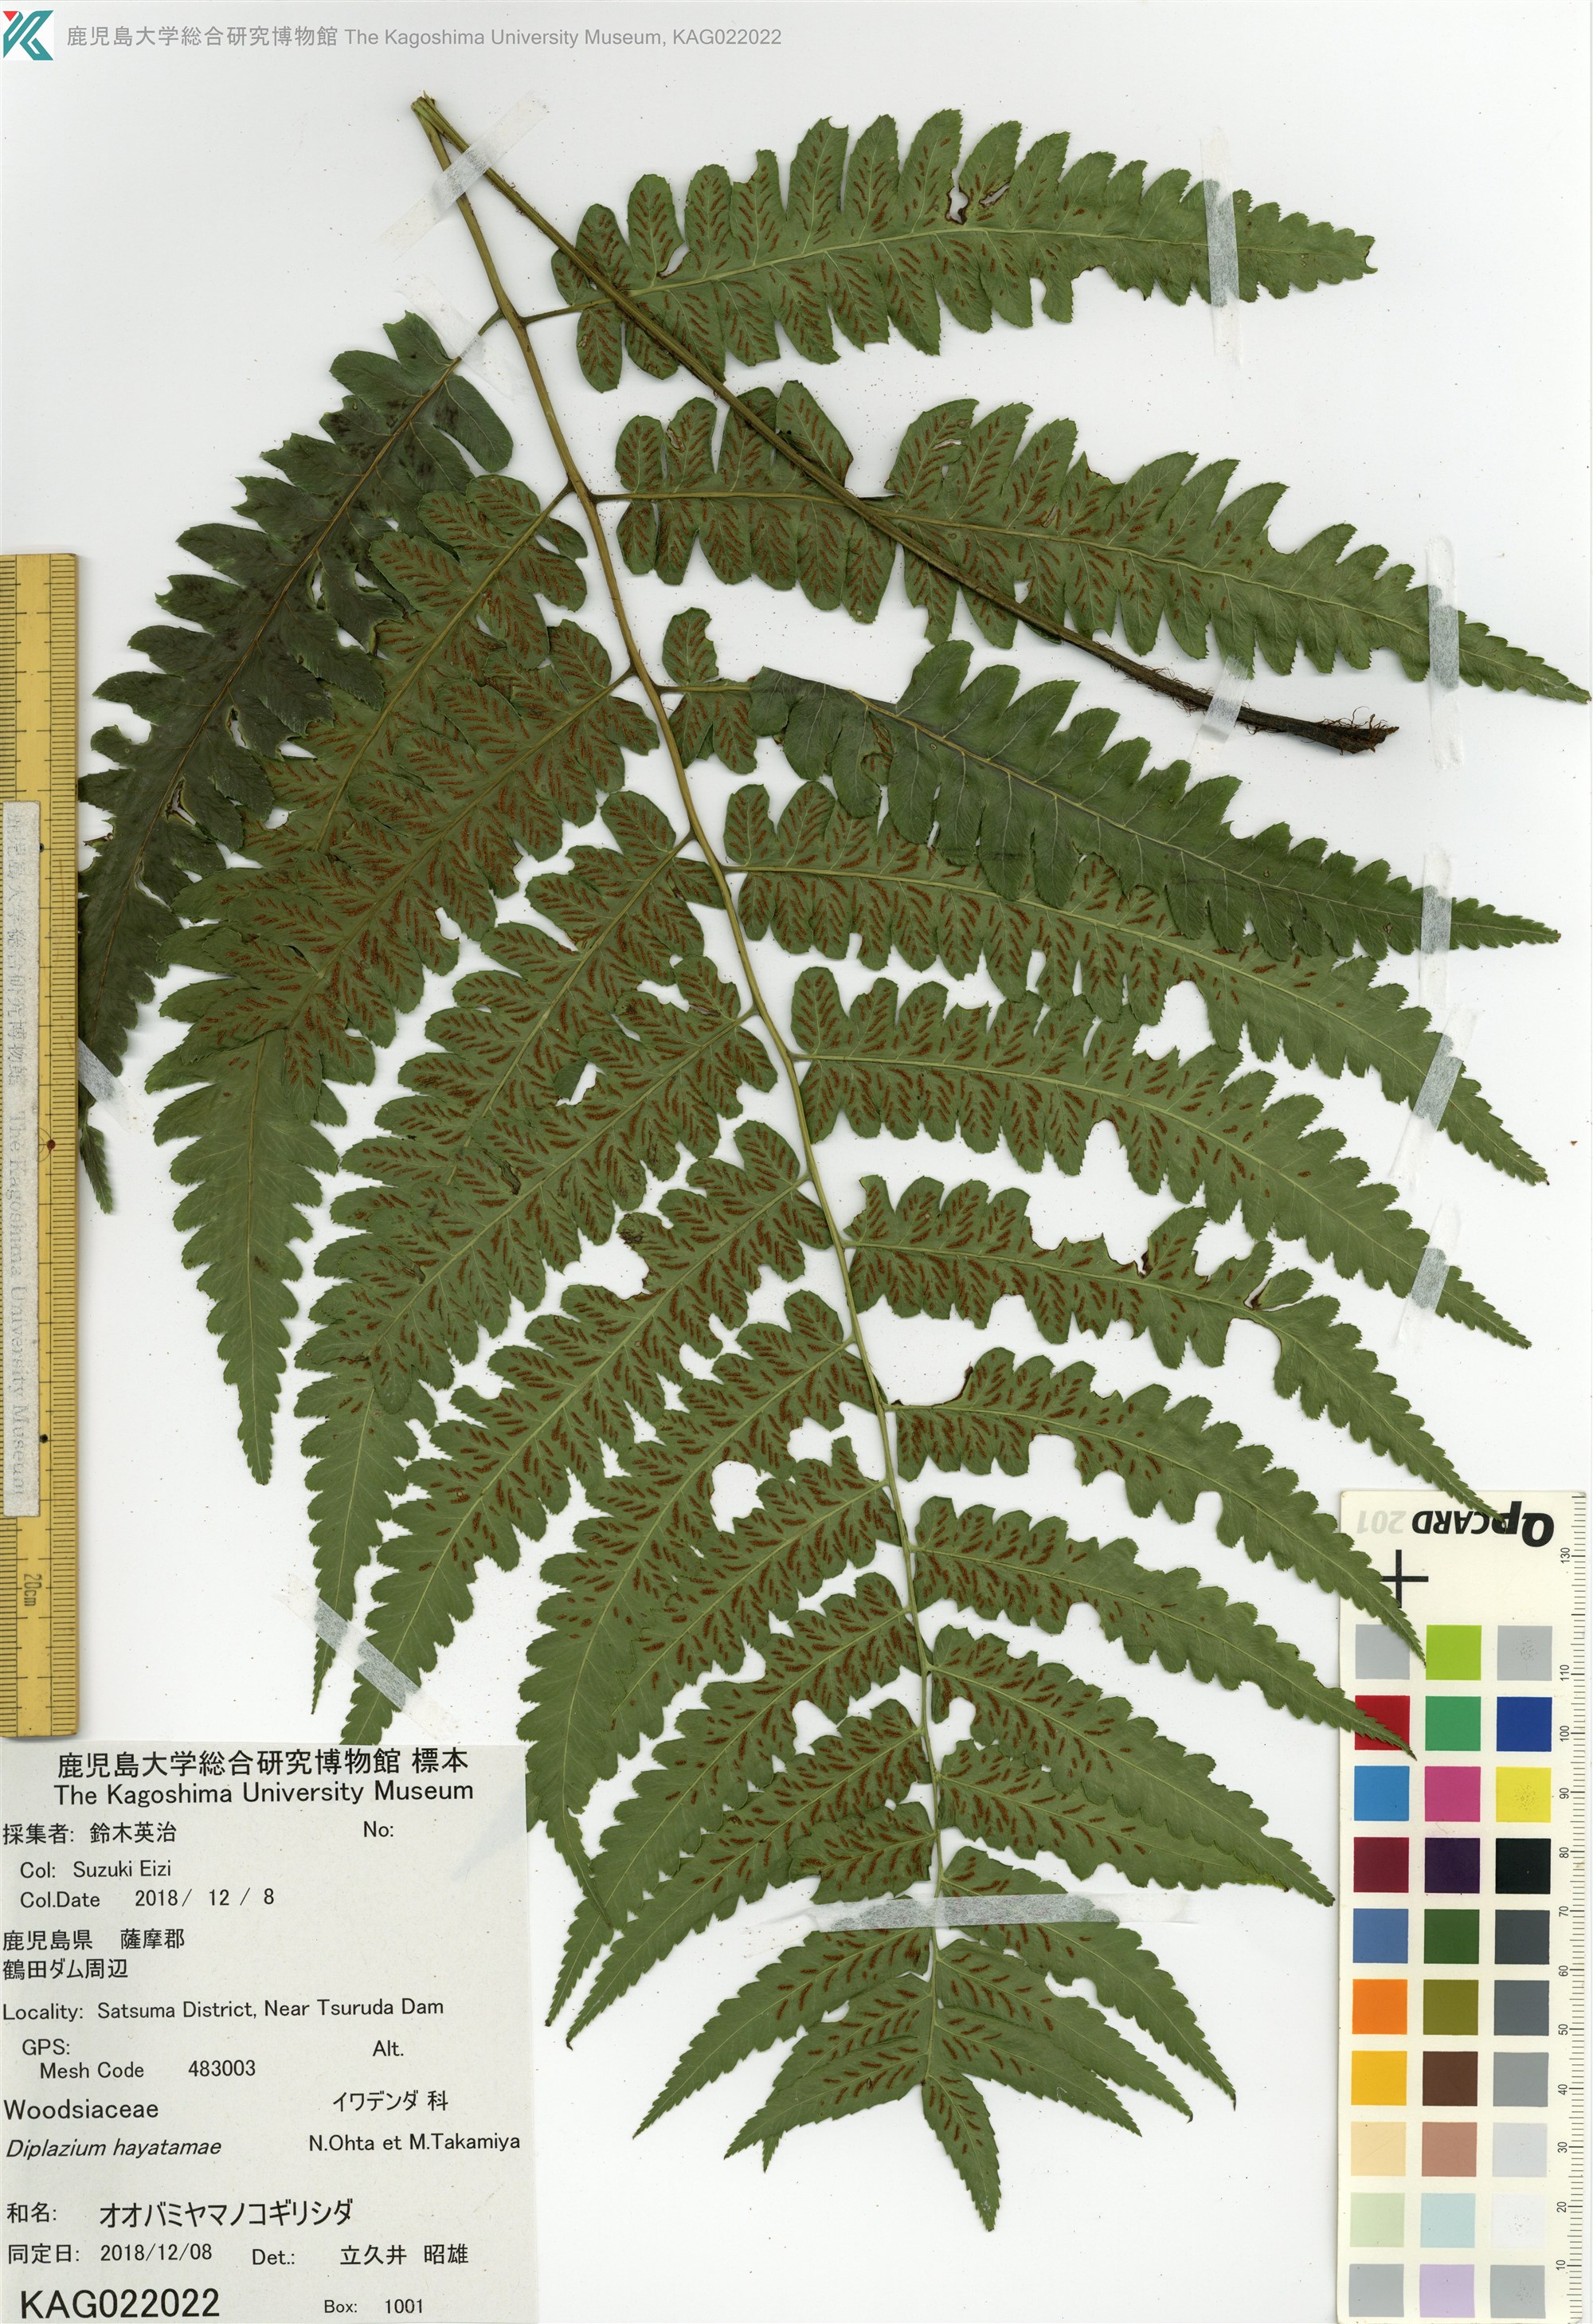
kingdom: Plantae
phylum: Tracheophyta
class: Polypodiopsida
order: Polypodiales
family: Athyriaceae
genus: Diplazium
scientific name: Diplazium hayatamae
